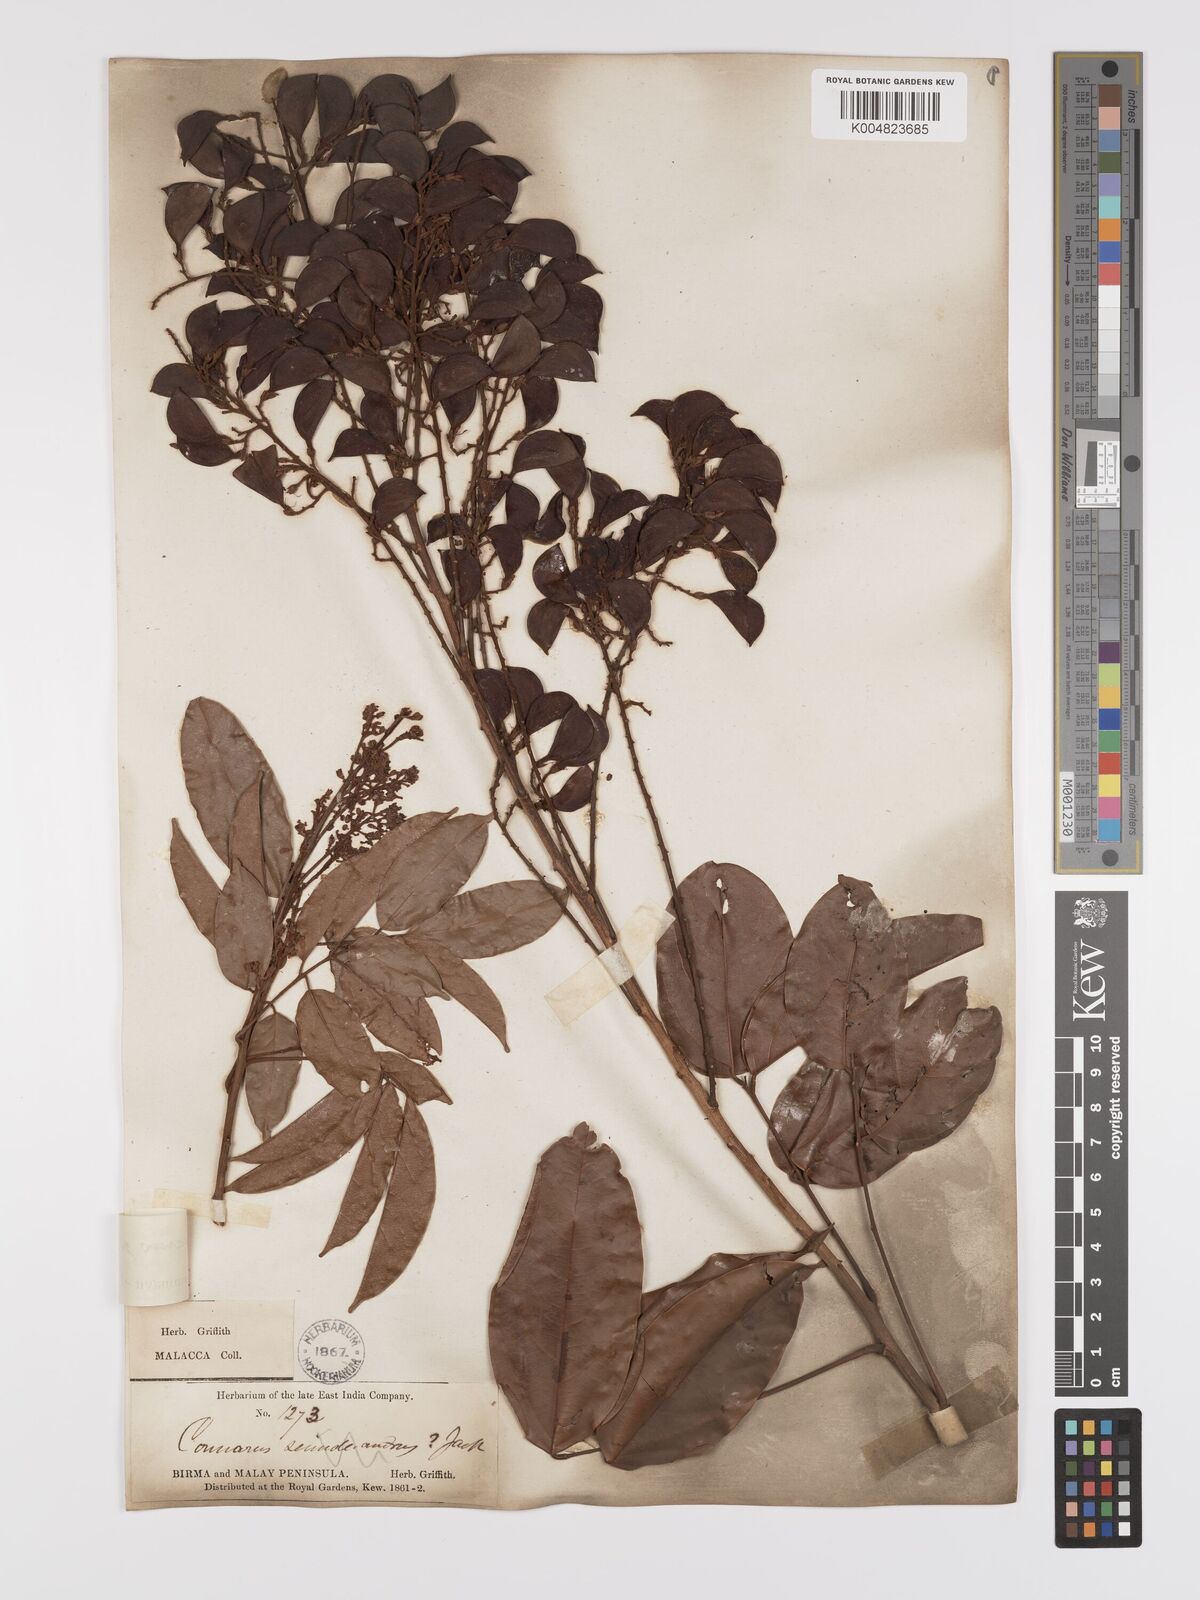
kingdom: Plantae
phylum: Tracheophyta
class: Magnoliopsida
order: Oxalidales
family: Connaraceae
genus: Connarus
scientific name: Connarus semidecandrus
